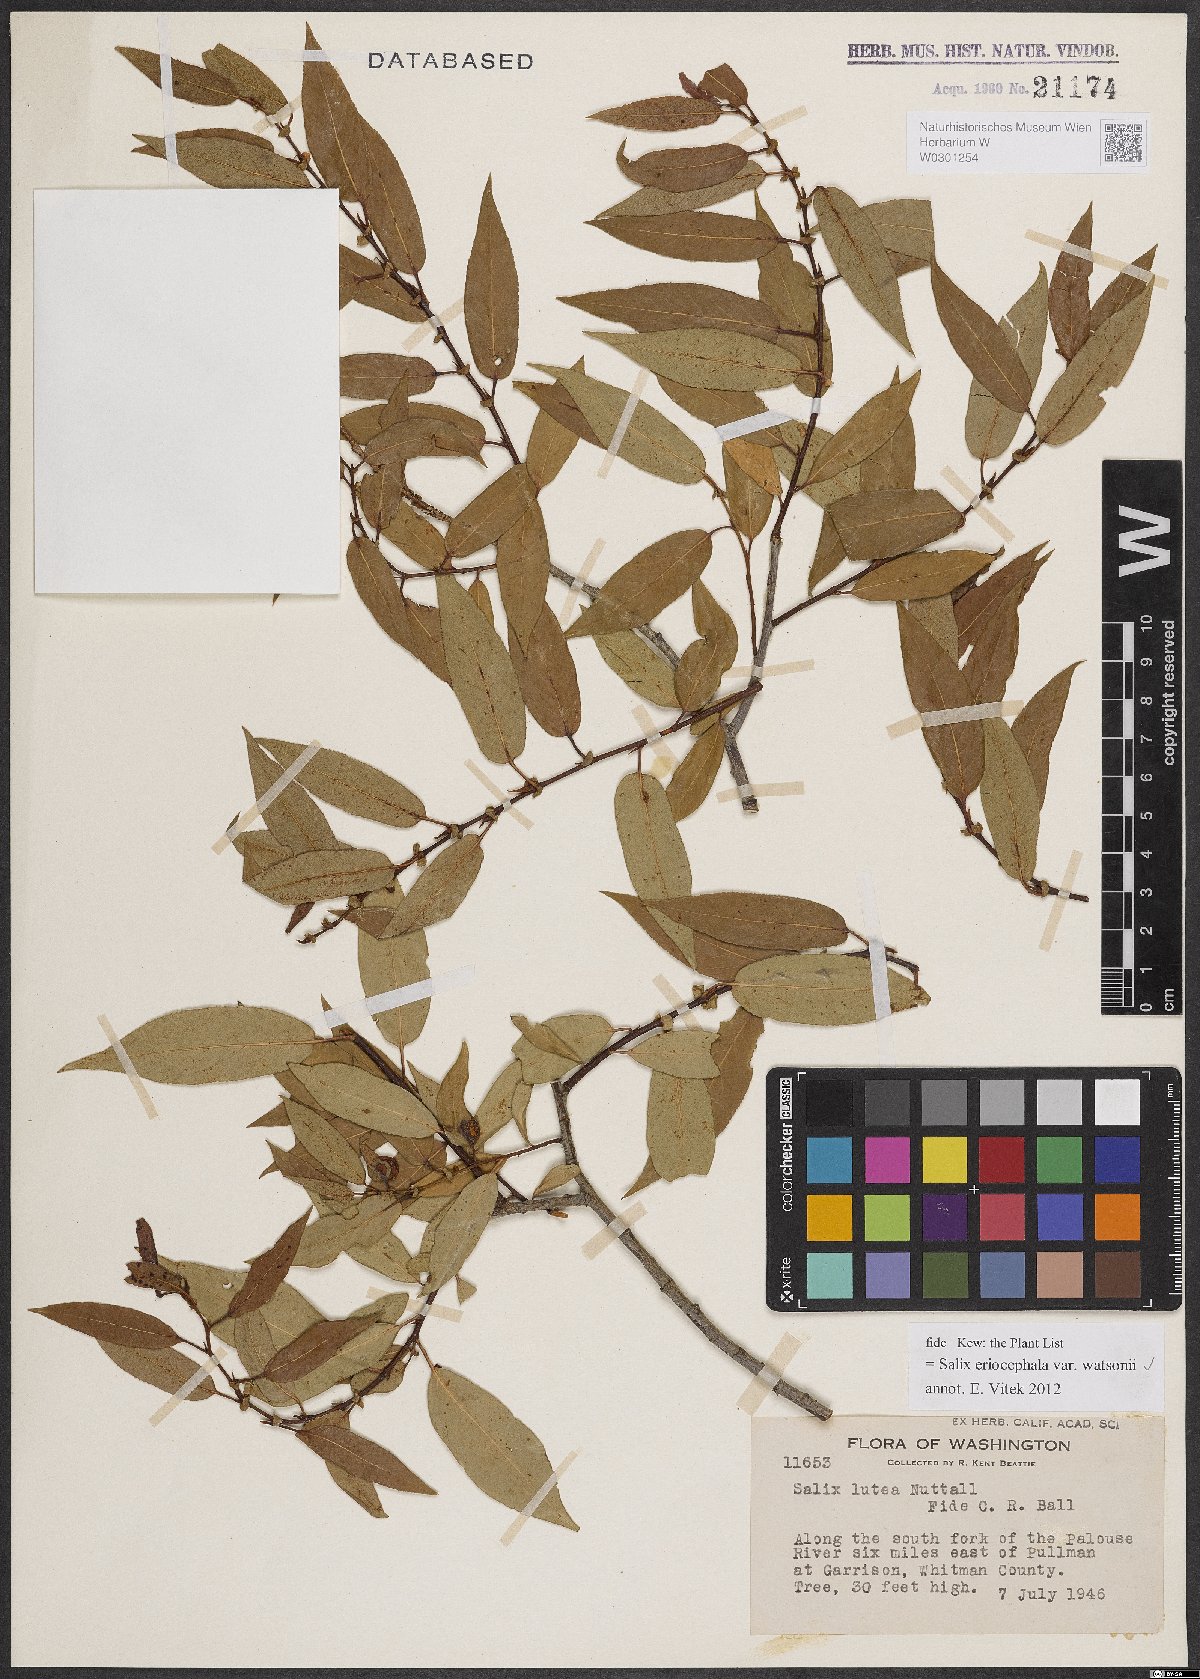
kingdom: Plantae
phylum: Tracheophyta
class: Magnoliopsida
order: Malpighiales
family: Salicaceae
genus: Salix
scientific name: Salix lutea
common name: Yellow willow
